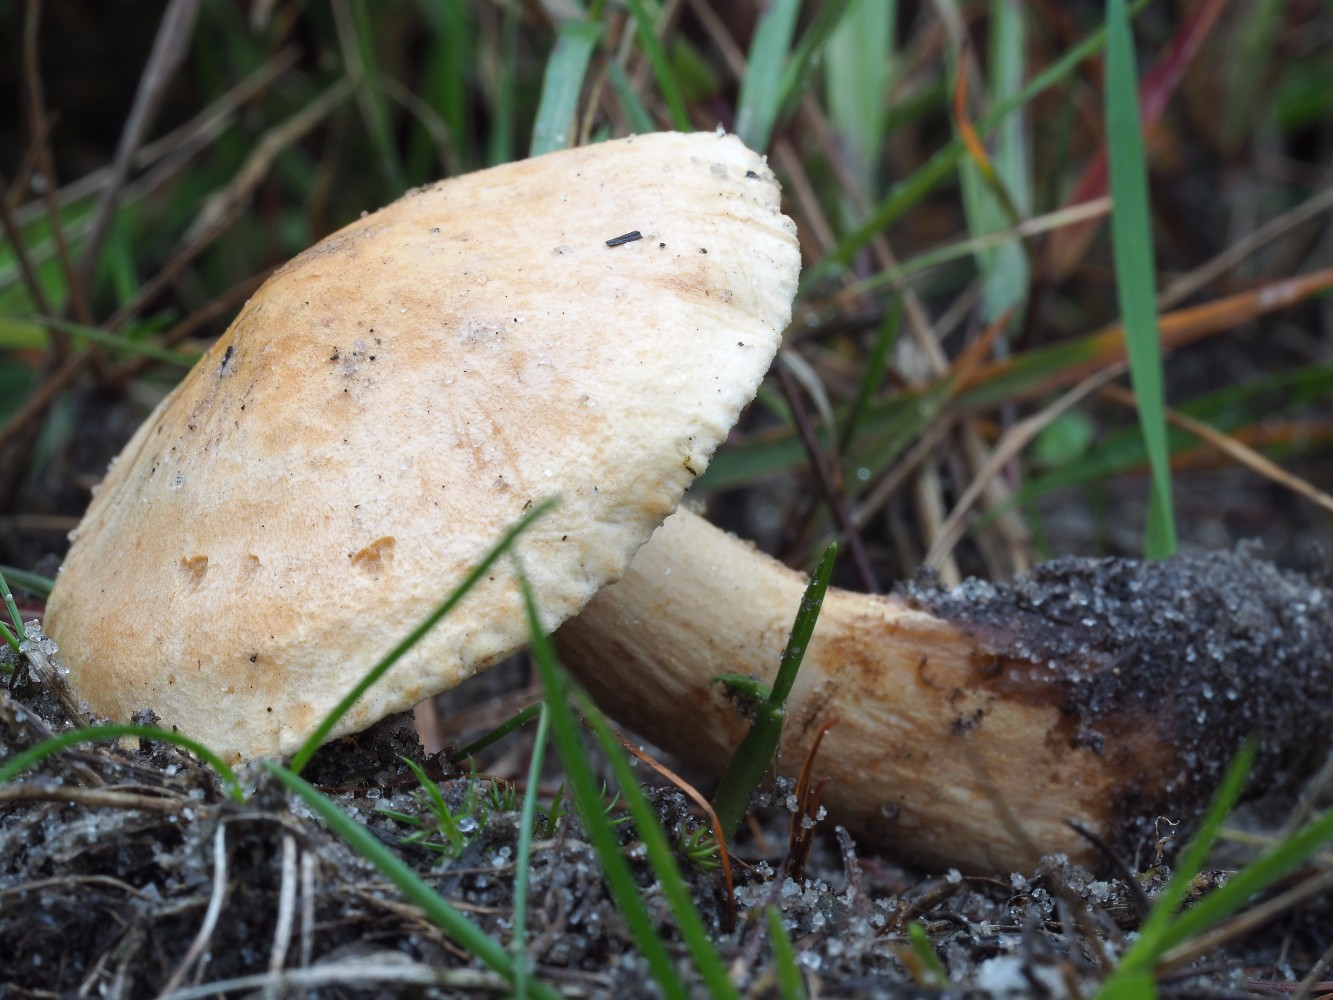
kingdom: Fungi
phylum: Basidiomycota
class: Agaricomycetes
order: Agaricales
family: Tricholomataceae
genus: Tricholoma
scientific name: Tricholoma psammopus
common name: grynstokket ridderhat
